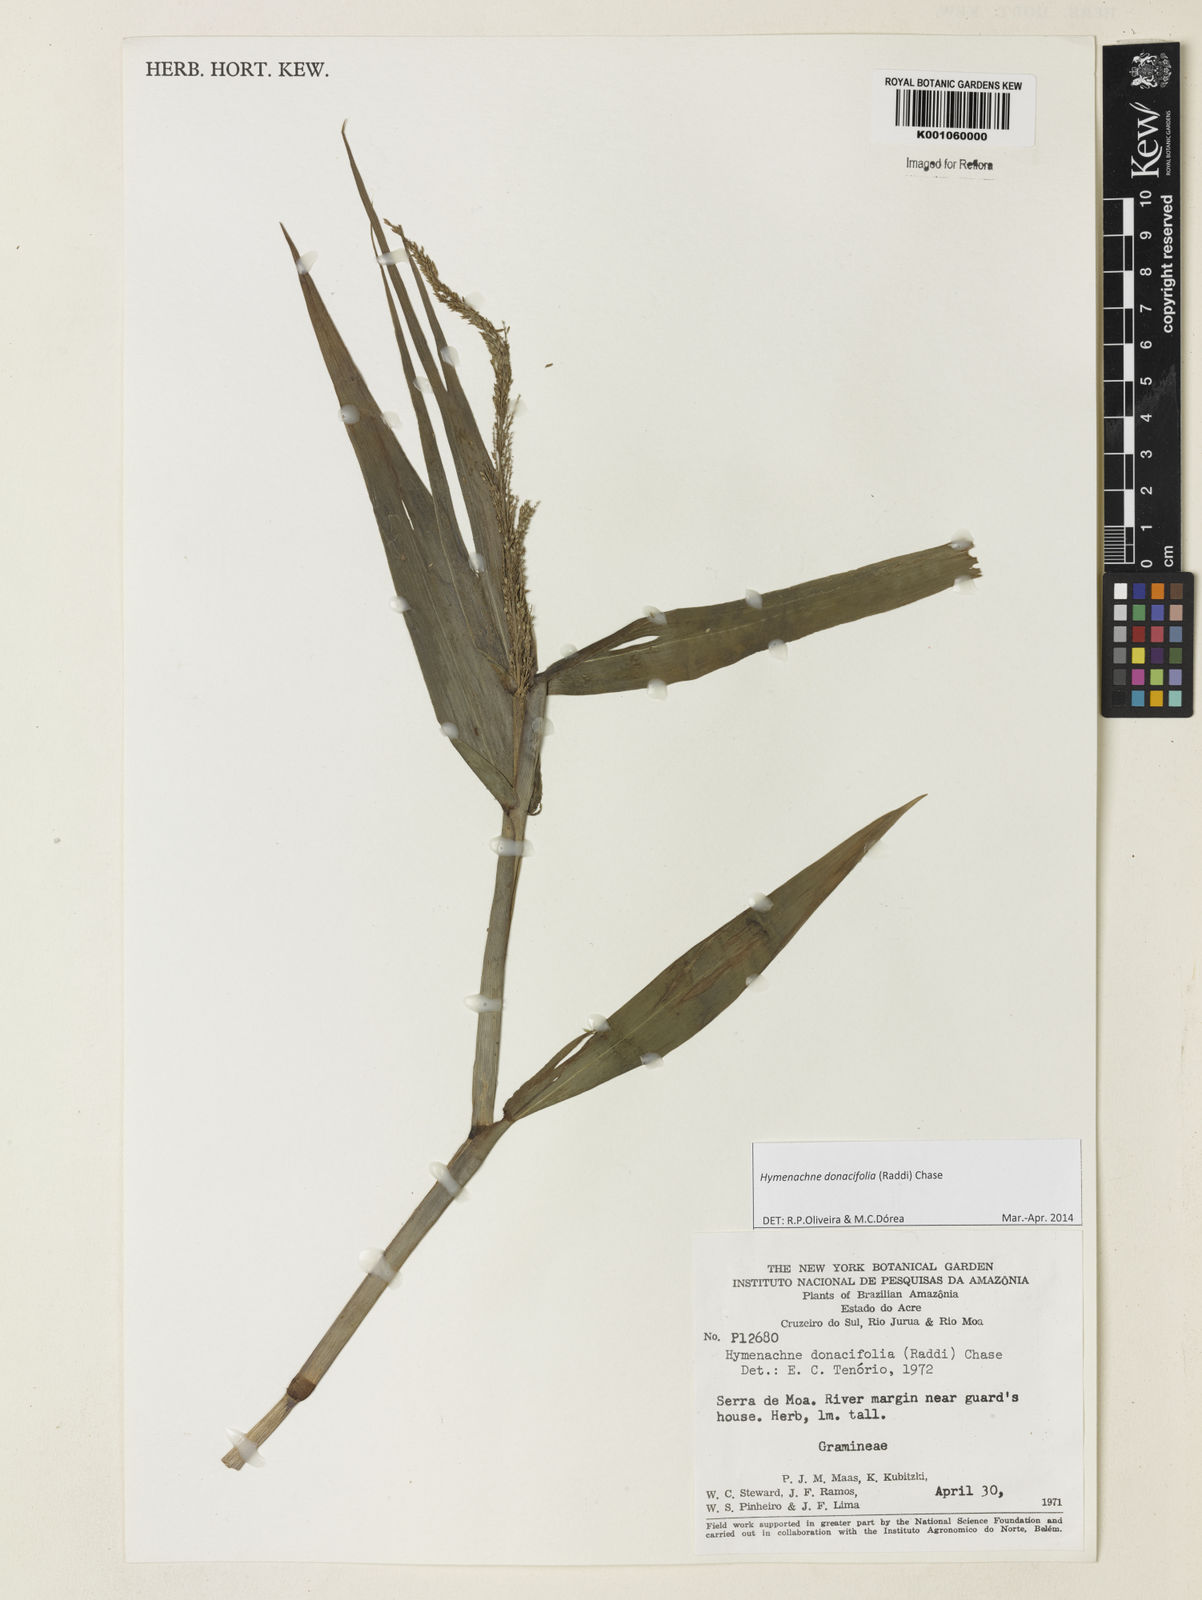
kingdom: Plantae
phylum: Tracheophyta
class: Liliopsida
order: Poales
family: Poaceae
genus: Hymenachne
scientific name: Hymenachne donacifolia
